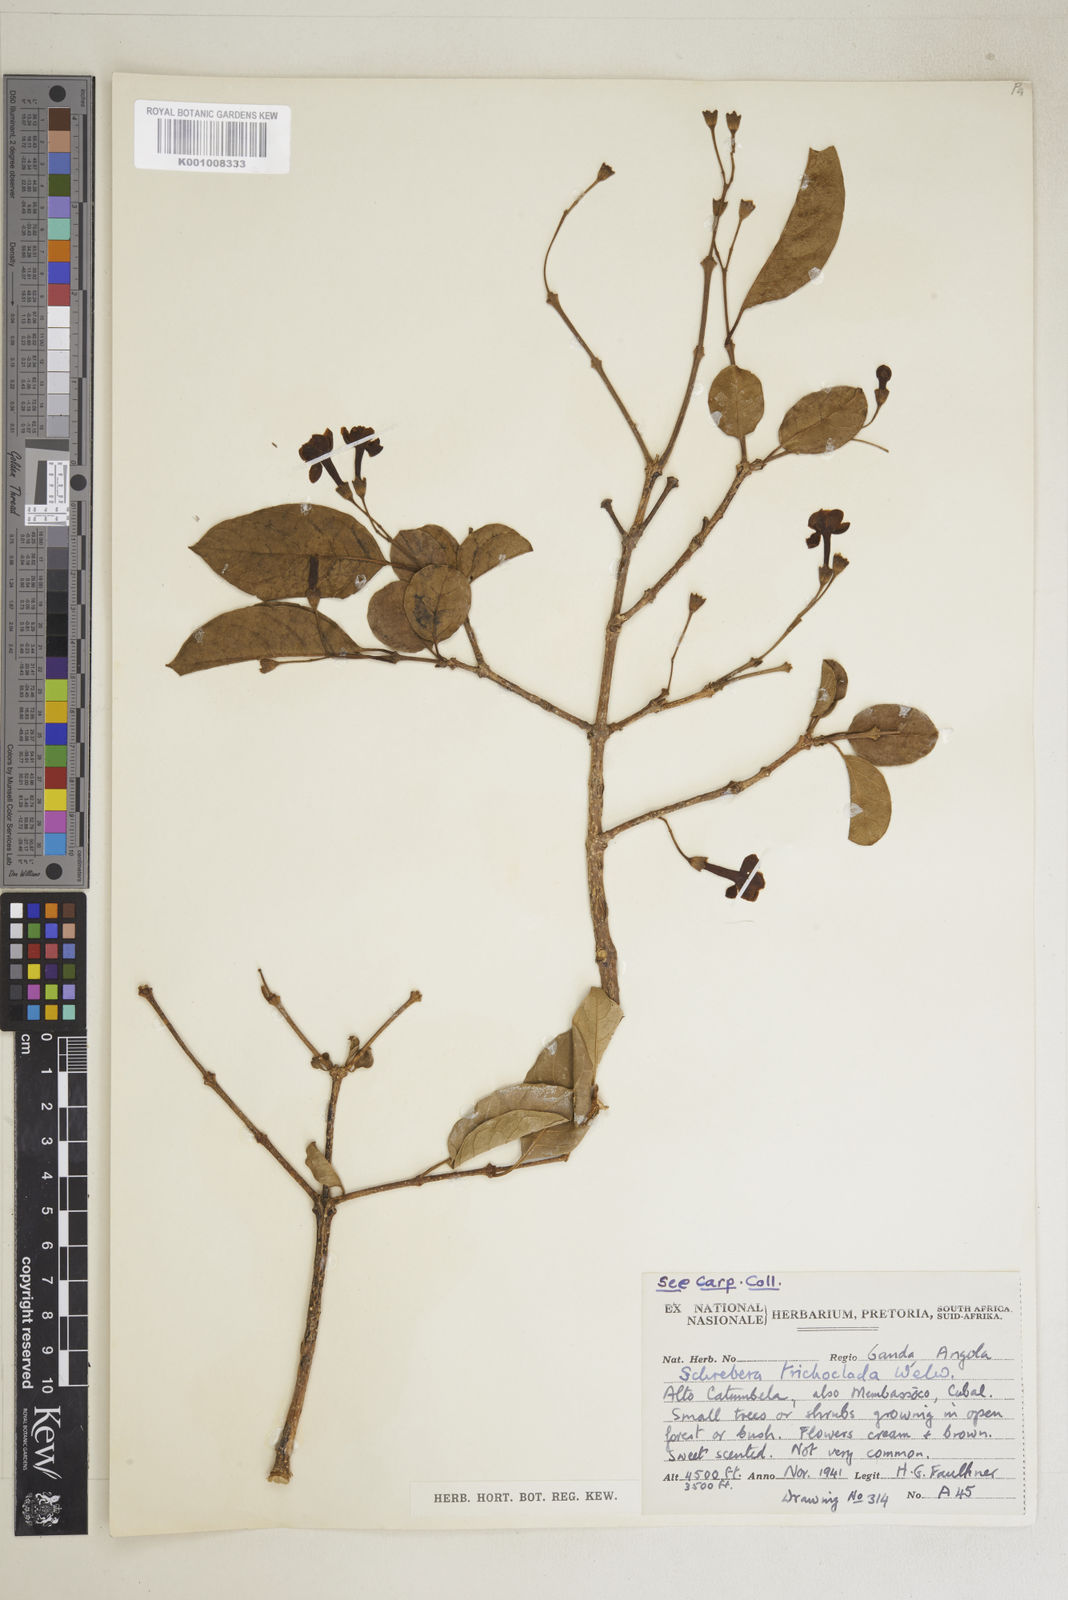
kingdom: Plantae
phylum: Tracheophyta
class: Magnoliopsida
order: Lamiales
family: Oleaceae
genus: Schrebera
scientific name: Schrebera trichoclada
